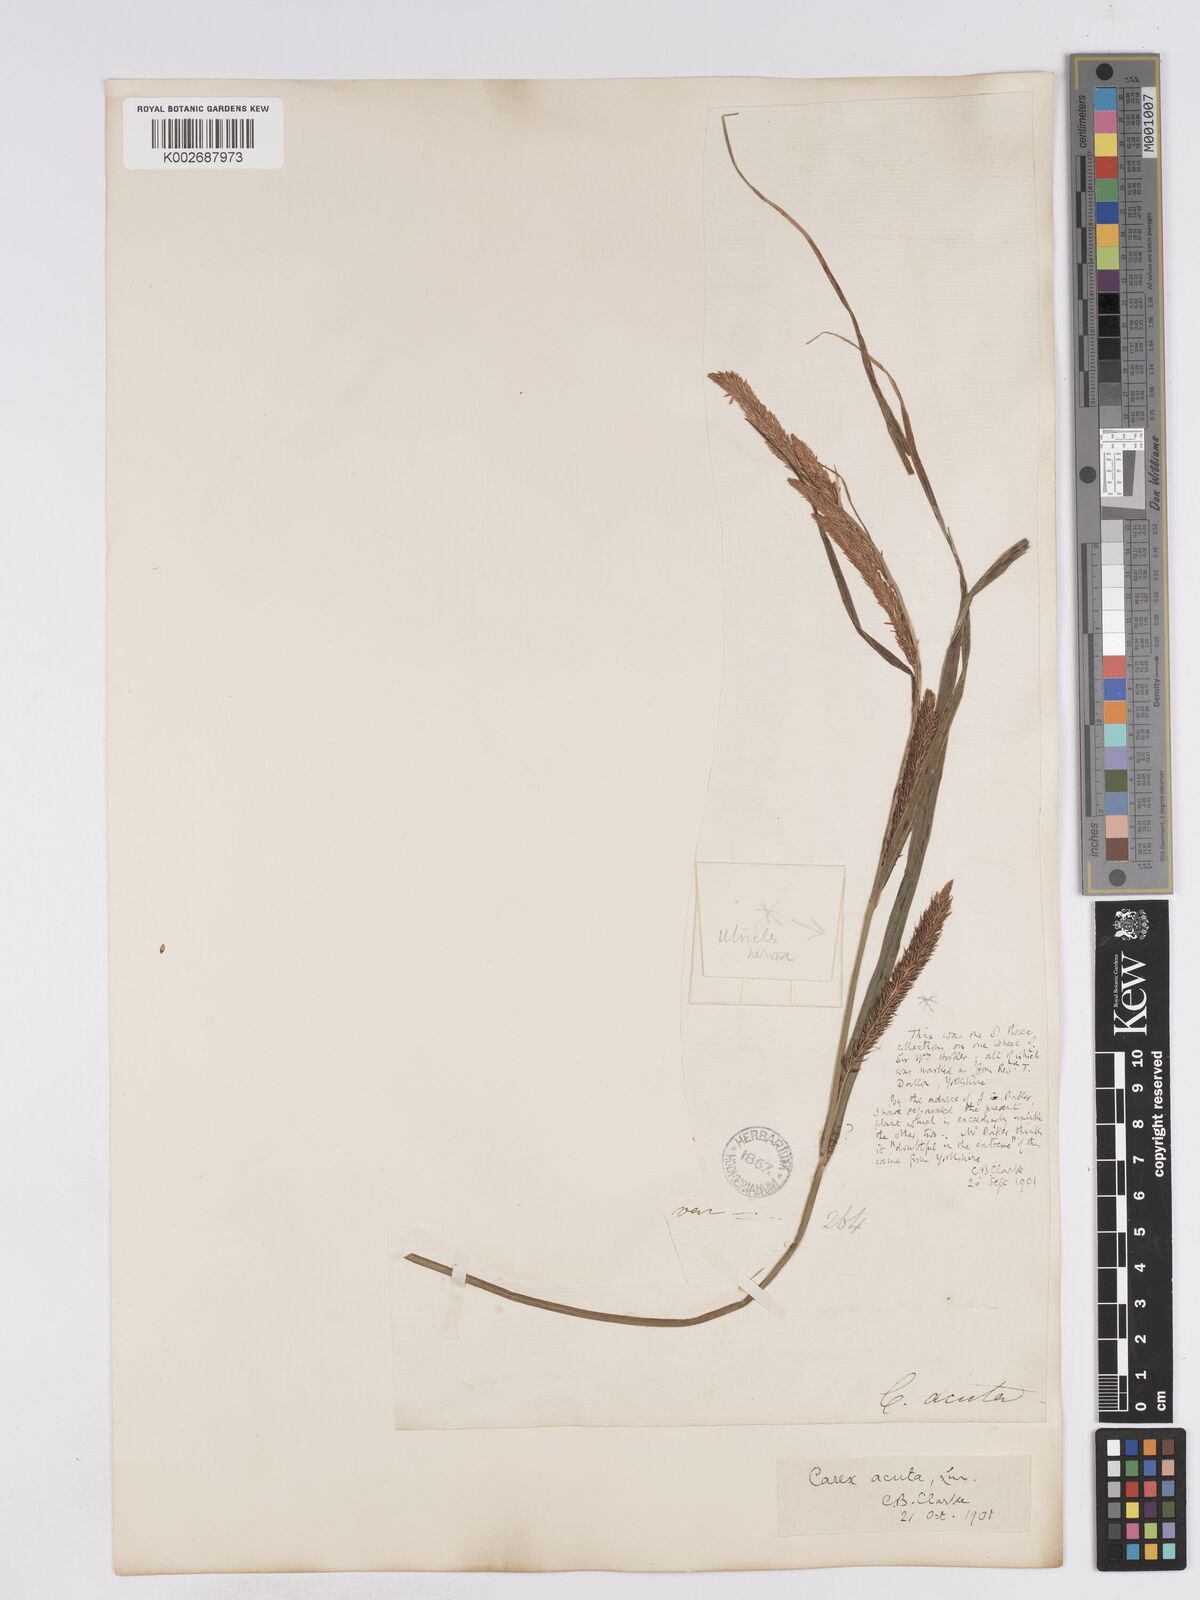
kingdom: Plantae
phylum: Tracheophyta
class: Liliopsida
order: Poales
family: Cyperaceae
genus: Carex
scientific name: Carex acuta
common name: Slender tufted-sedge
